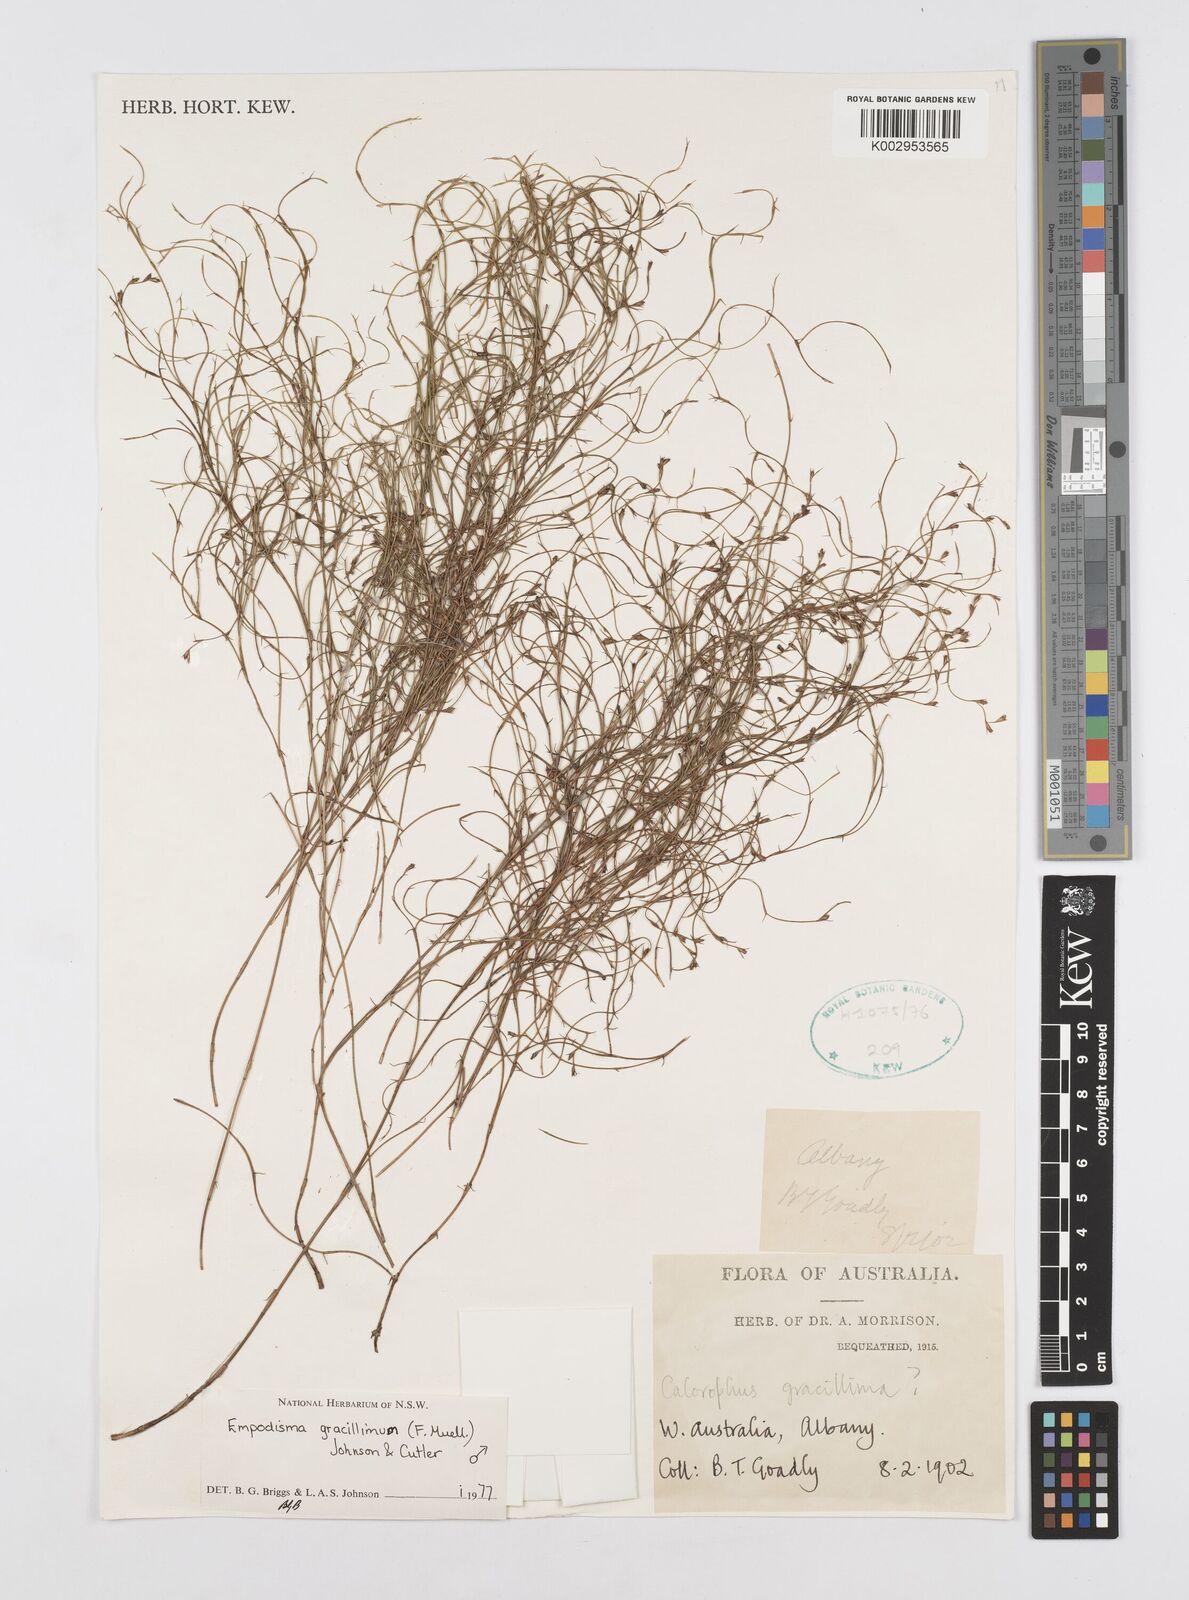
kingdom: Plantae
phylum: Tracheophyta
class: Liliopsida
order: Poales
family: Restionaceae
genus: Empodisma
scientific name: Empodisma gracillimum
